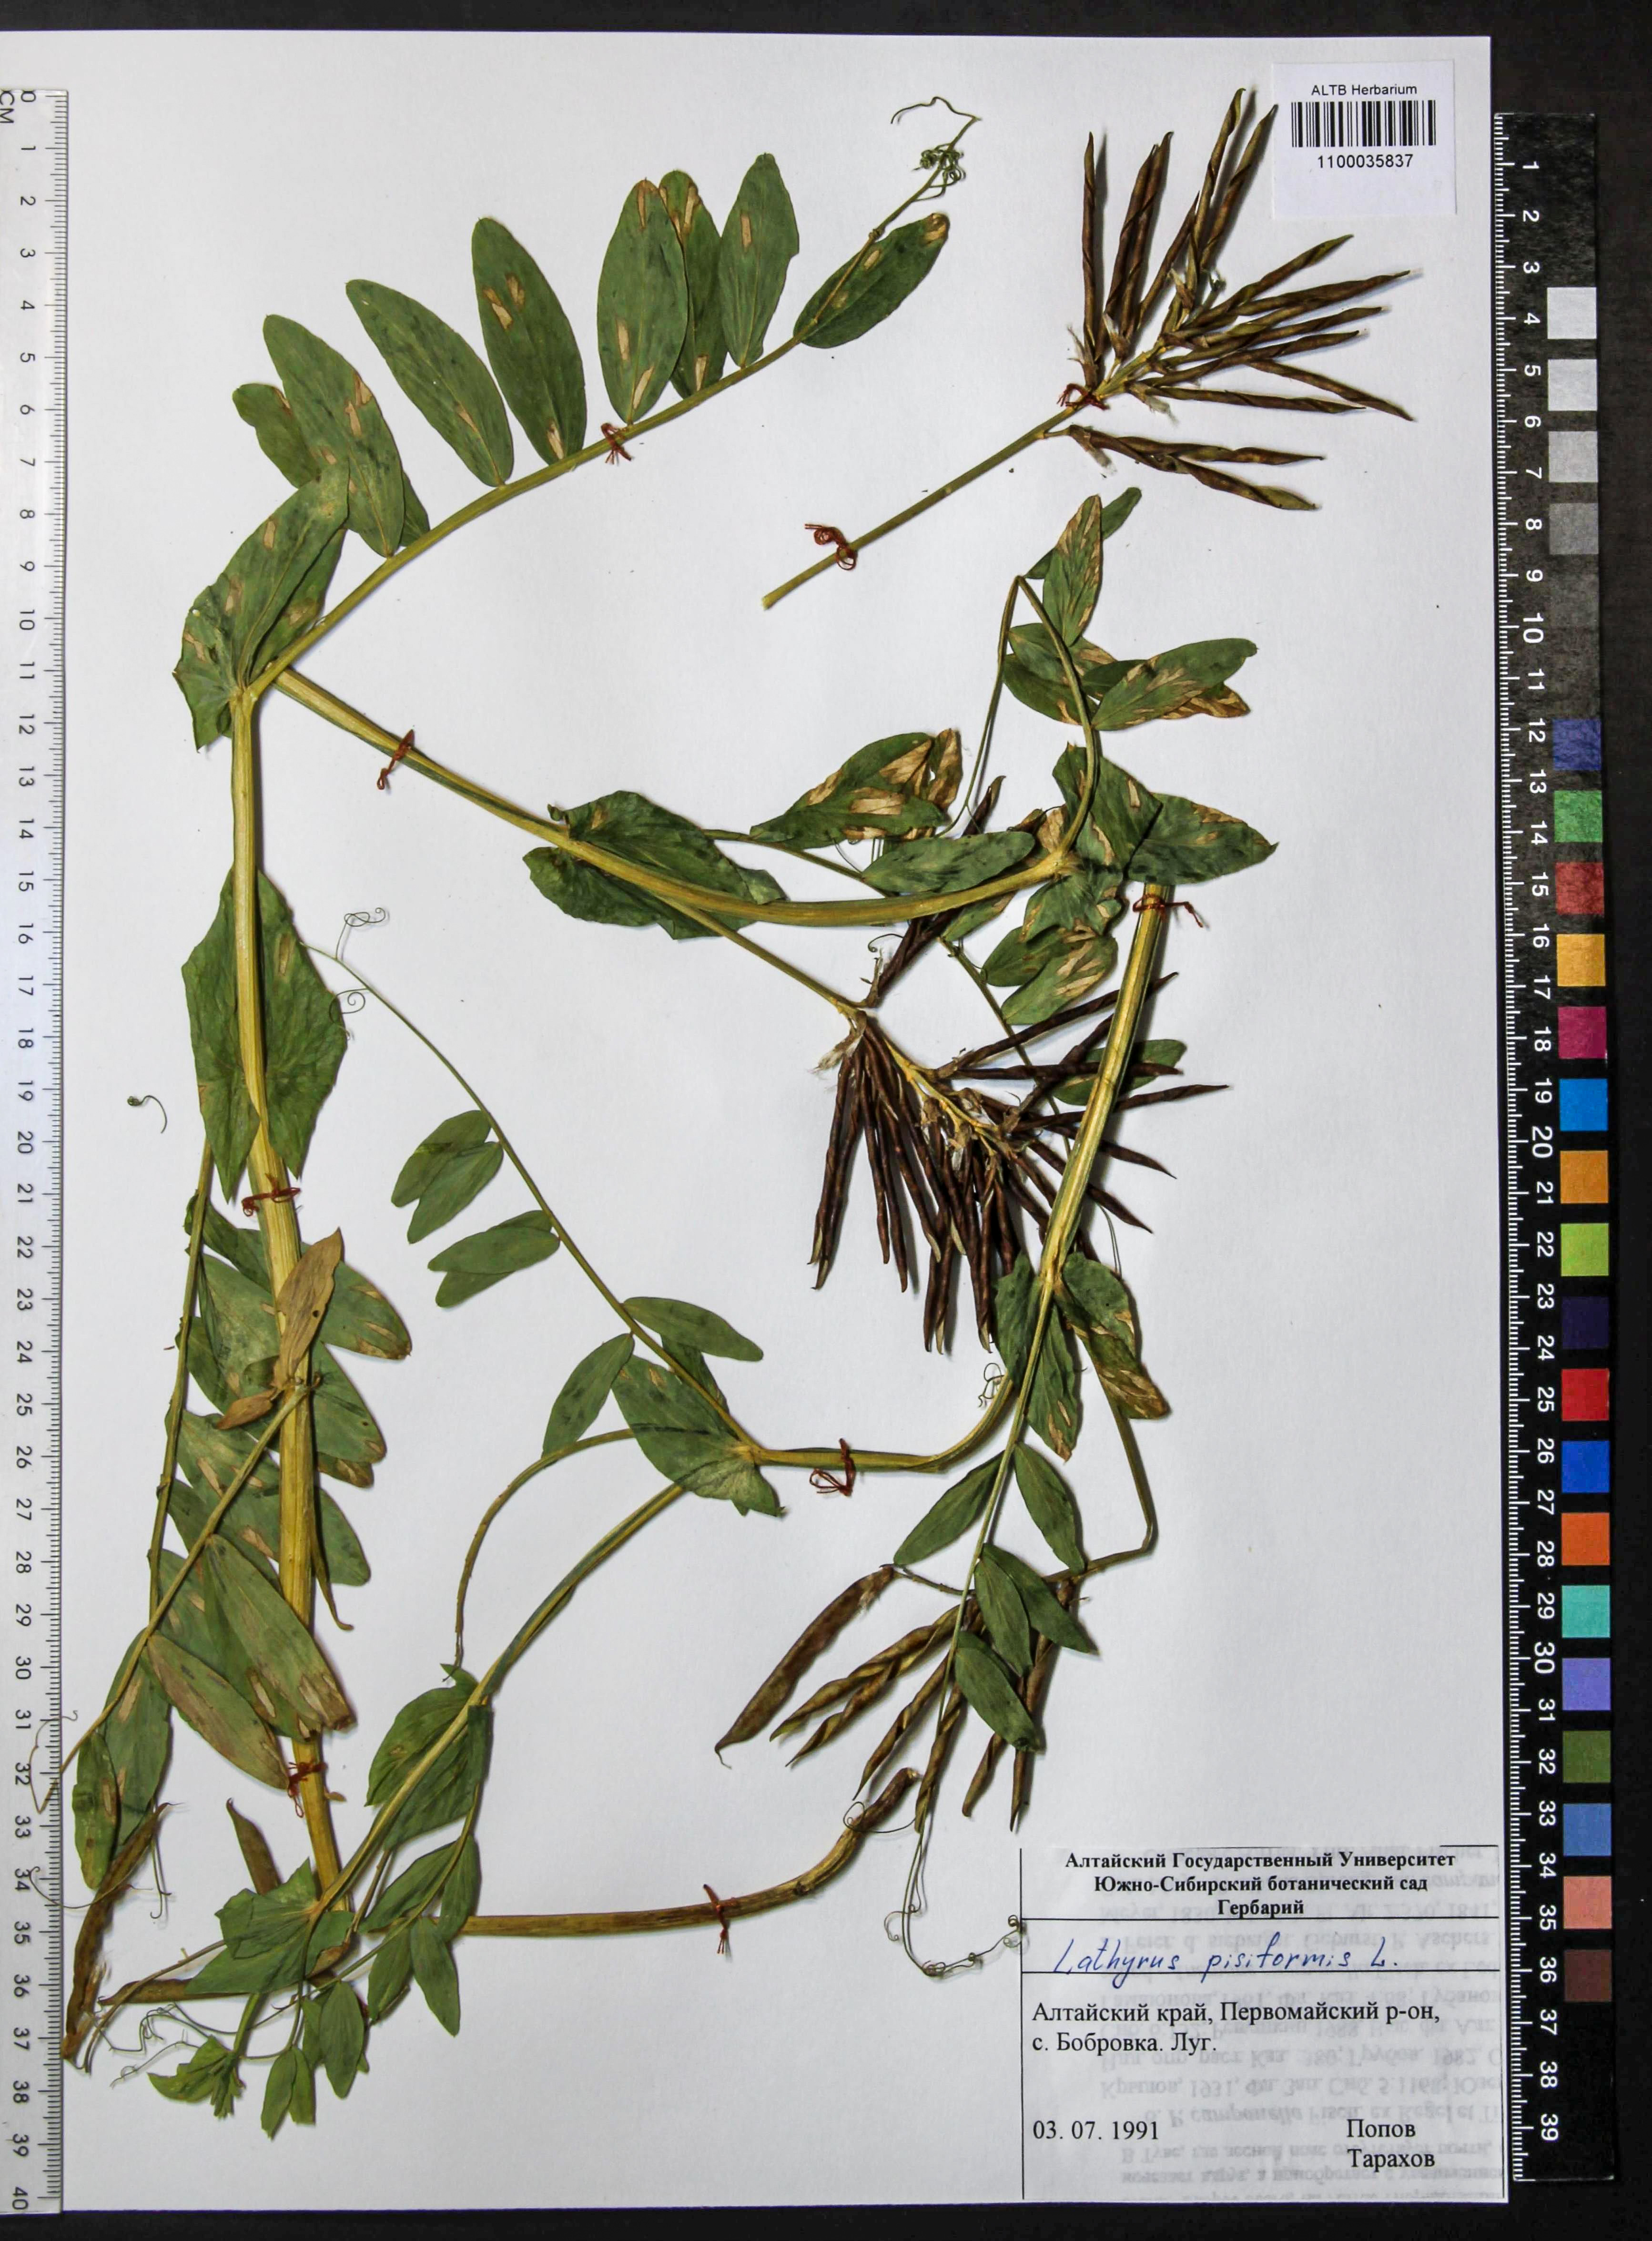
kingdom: Plantae
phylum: Tracheophyta
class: Magnoliopsida
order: Fabales
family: Fabaceae
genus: Lathyrus
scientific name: Lathyrus pisiformis
